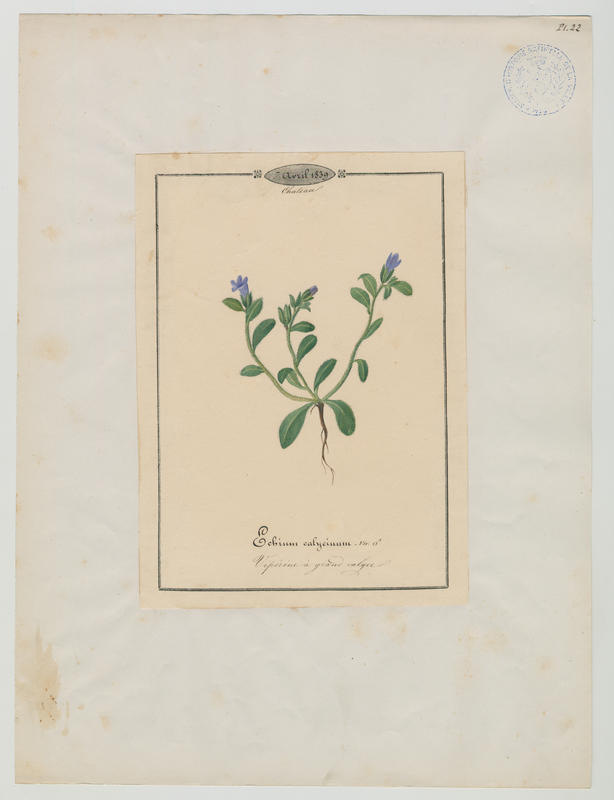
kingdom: Plantae
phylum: Tracheophyta
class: Magnoliopsida
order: Boraginales
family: Boraginaceae
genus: Echium
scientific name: Echium parviflorum
